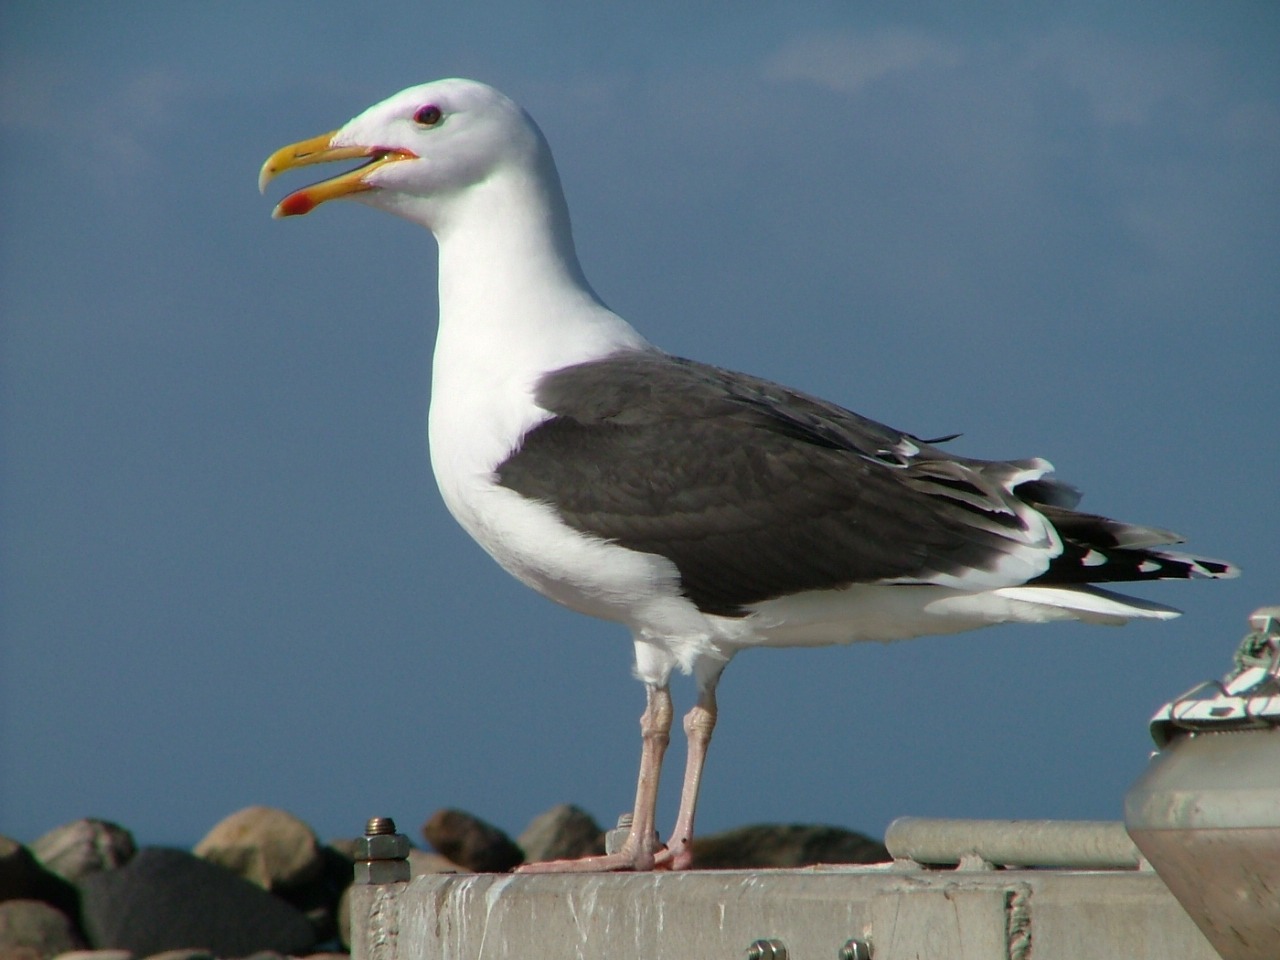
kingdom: Animalia
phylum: Chordata
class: Aves
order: Charadriiformes
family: Laridae
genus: Larus
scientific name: Larus marinus
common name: Svartbag
